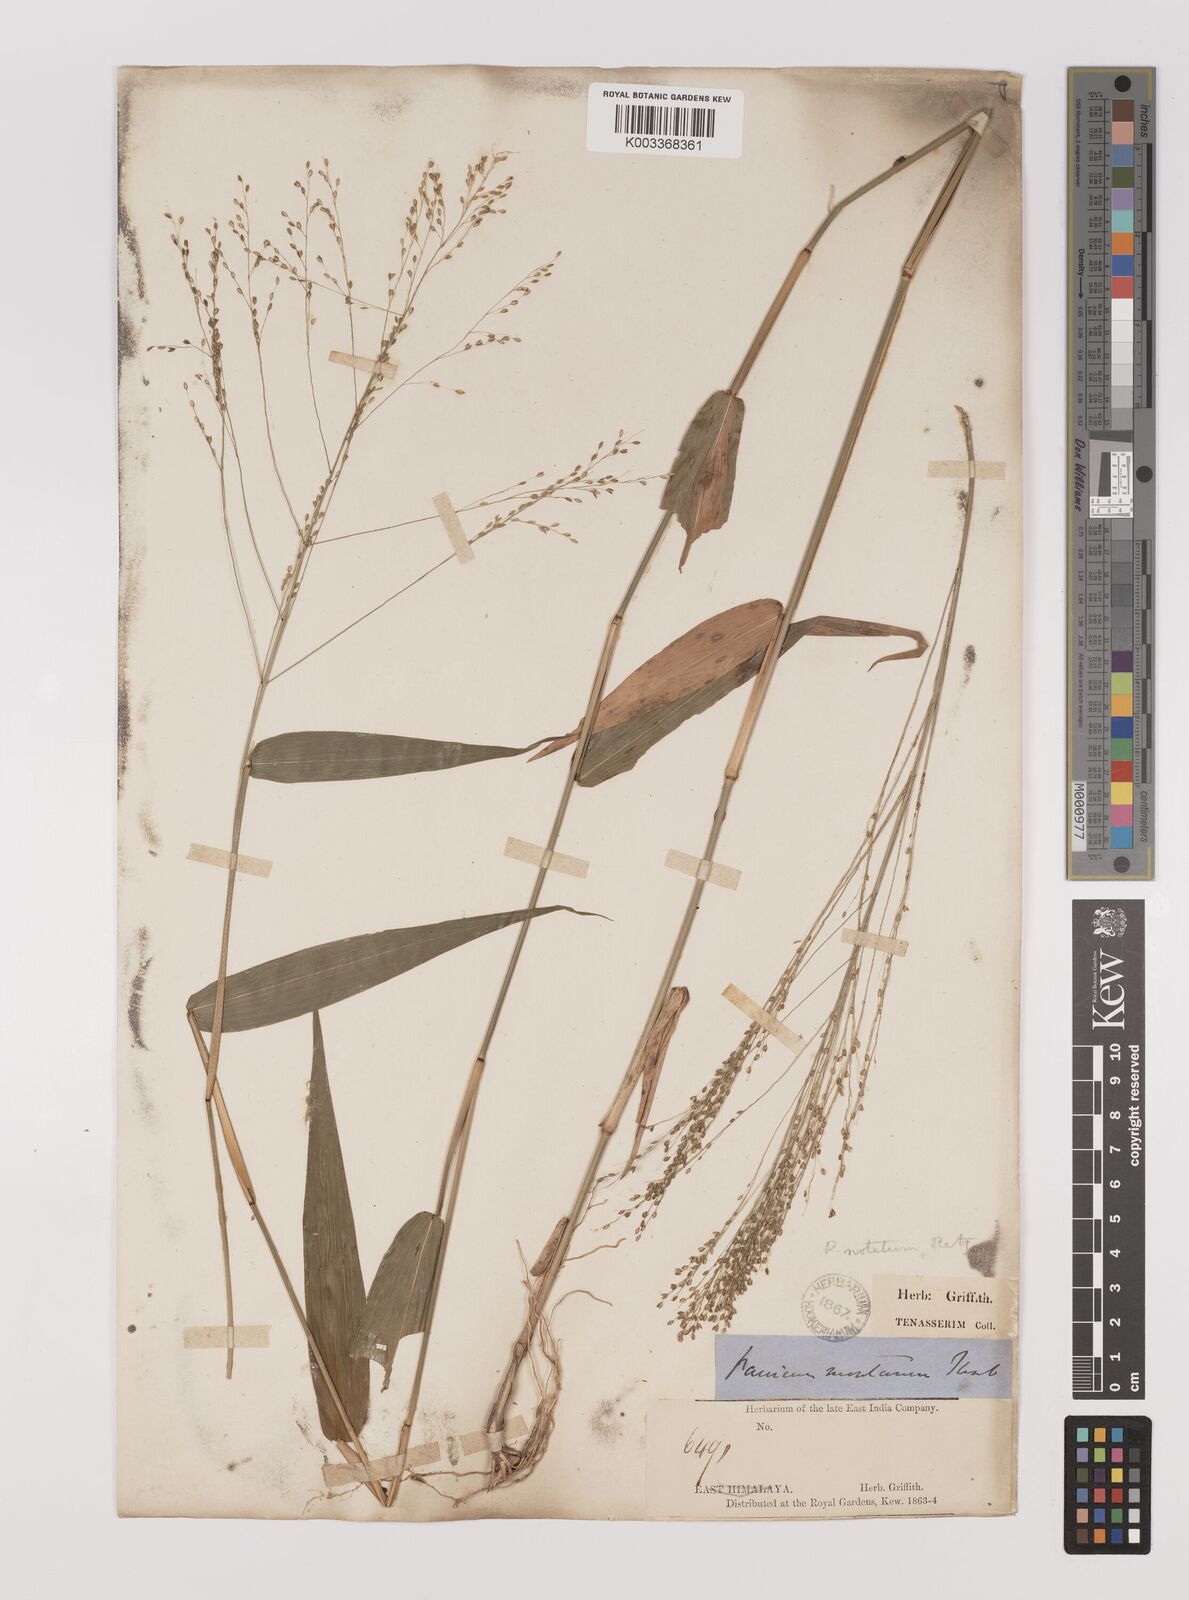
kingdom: Plantae
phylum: Tracheophyta
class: Liliopsida
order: Poales
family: Poaceae
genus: Panicum
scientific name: Panicum notatum
